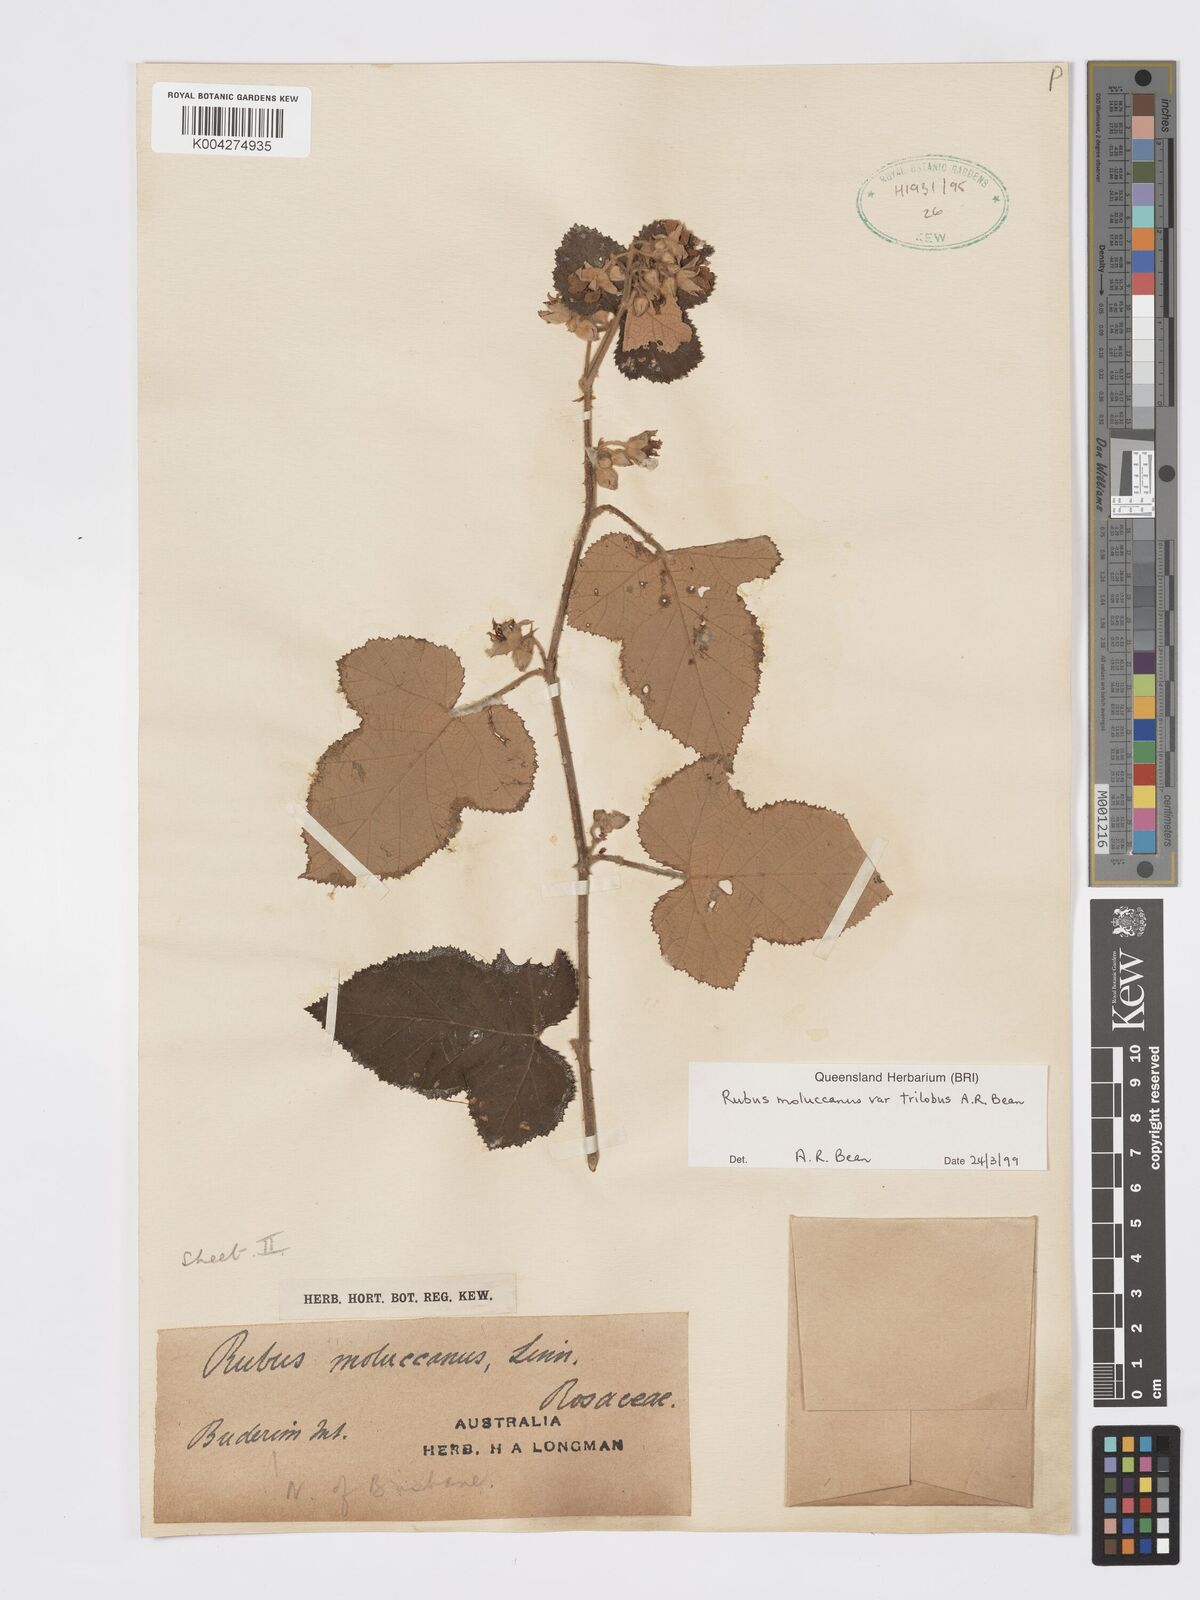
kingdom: Plantae
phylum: Tracheophyta
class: Magnoliopsida
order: Rosales
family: Rosaceae
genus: Rubus
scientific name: Rubus moluccanus
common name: Wild raspberry
